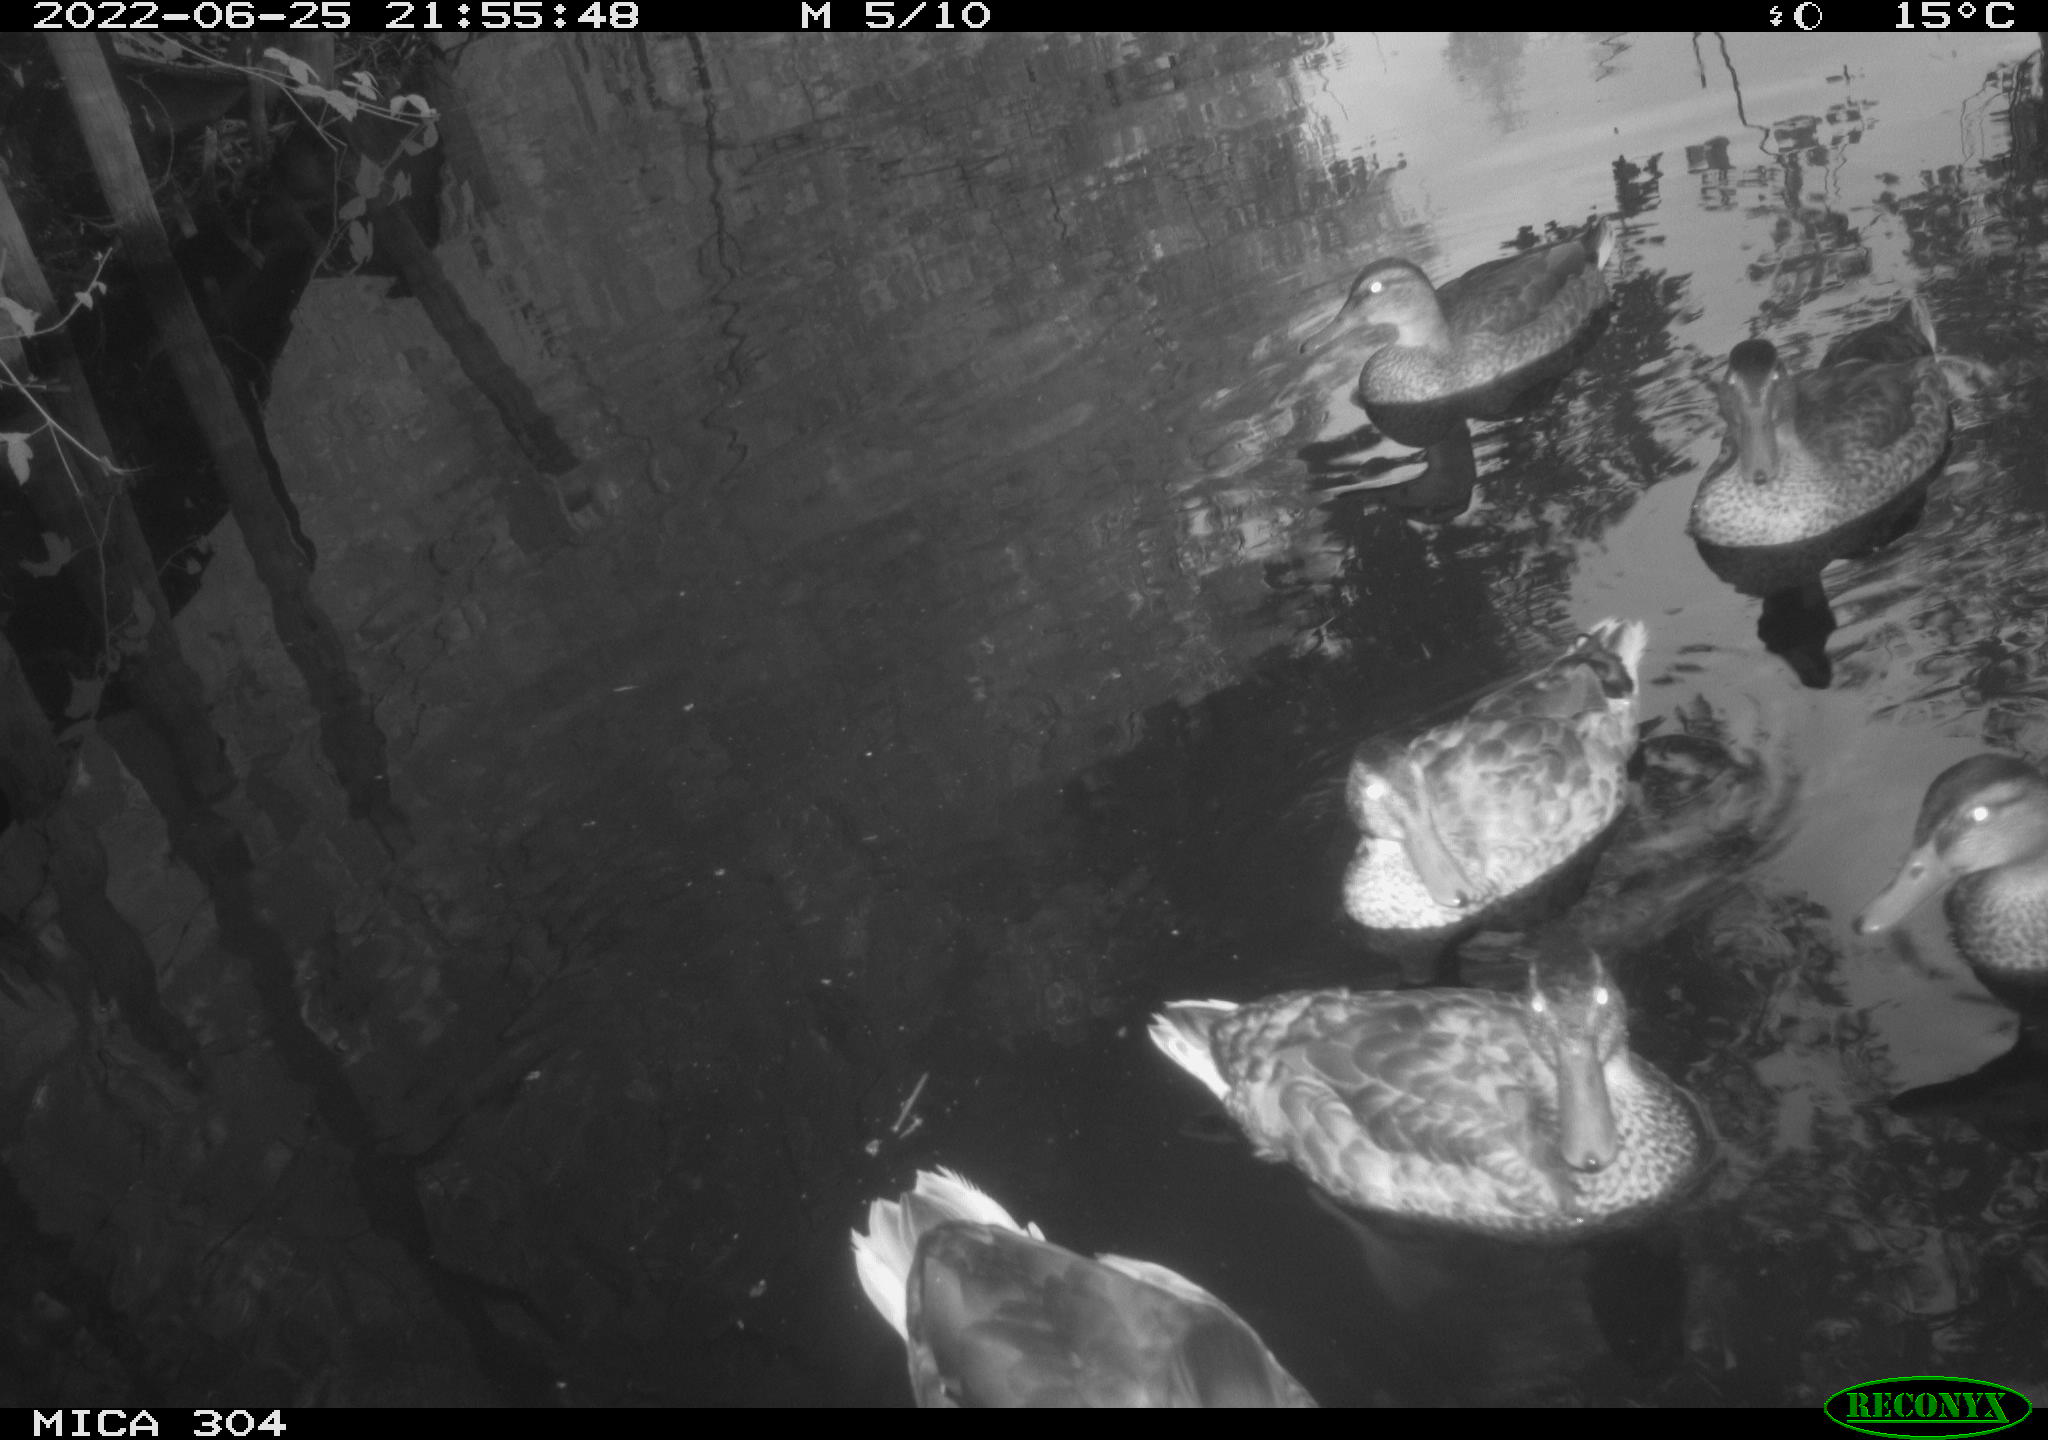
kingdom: Animalia
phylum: Chordata
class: Aves
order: Anseriformes
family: Anatidae
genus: Anas
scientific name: Anas platyrhynchos
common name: Mallard
